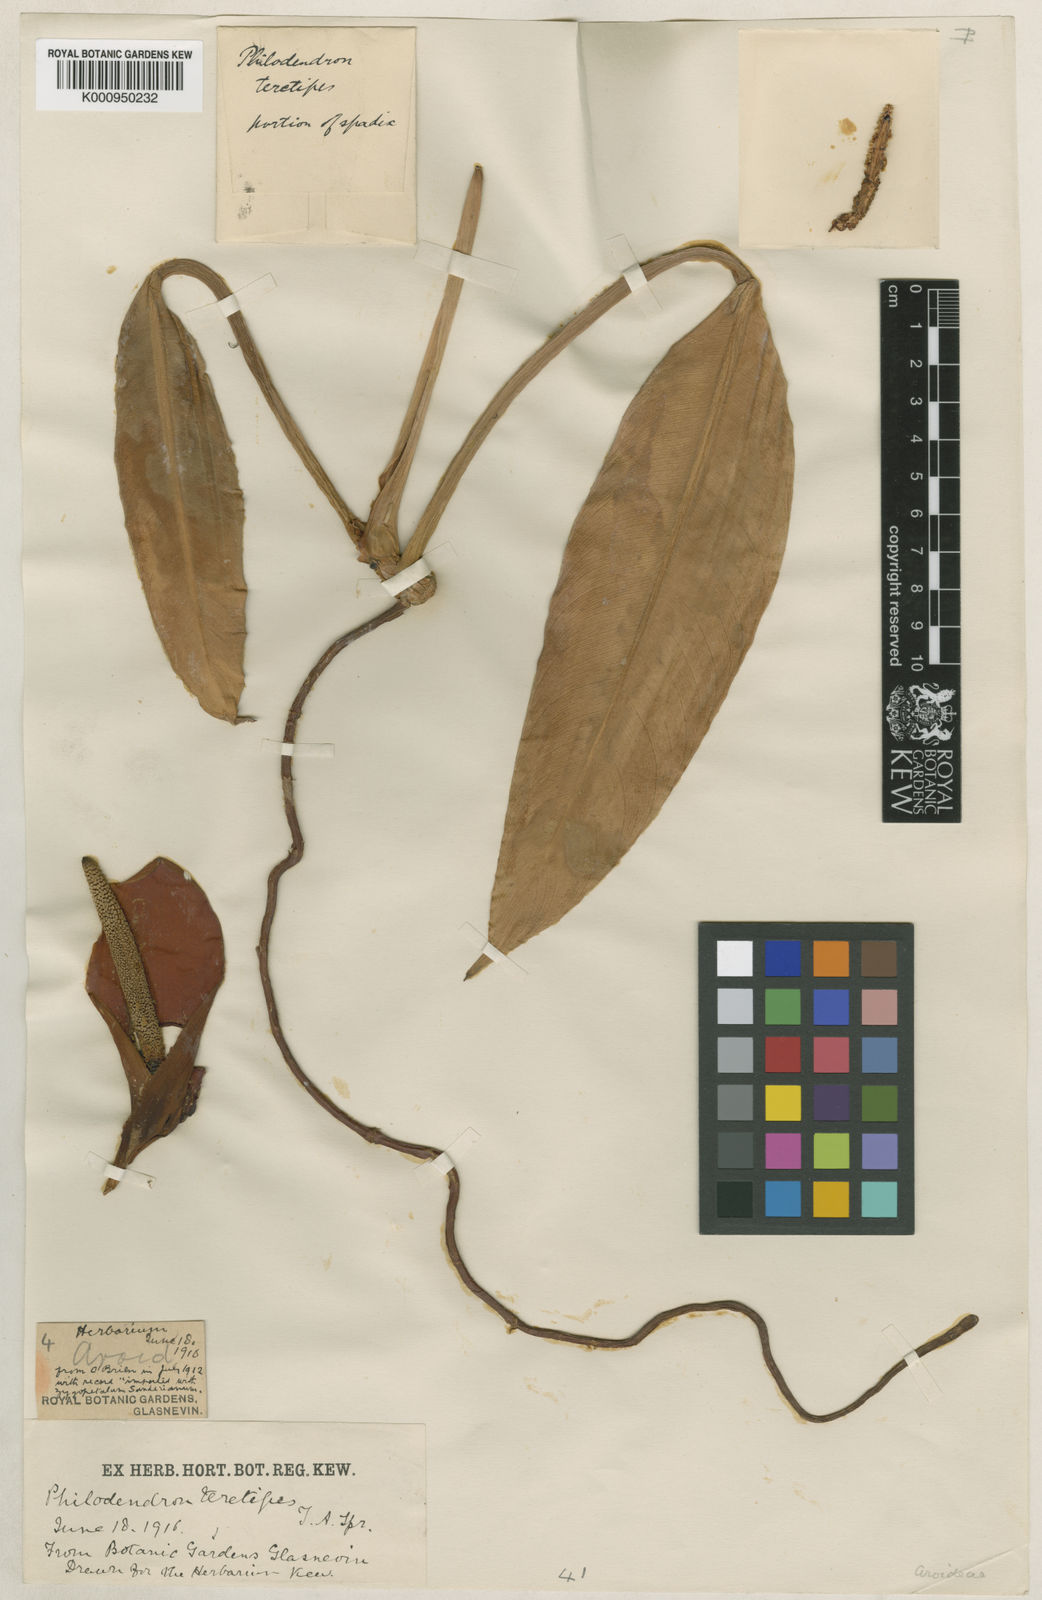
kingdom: Plantae
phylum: Tracheophyta
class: Liliopsida
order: Alismatales
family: Araceae
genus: Philodendron
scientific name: Philodendron teretipes
